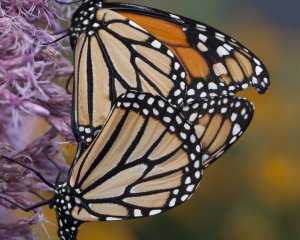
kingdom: Animalia
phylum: Arthropoda
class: Insecta
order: Lepidoptera
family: Nymphalidae
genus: Danaus
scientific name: Danaus plexippus
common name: Monarch
